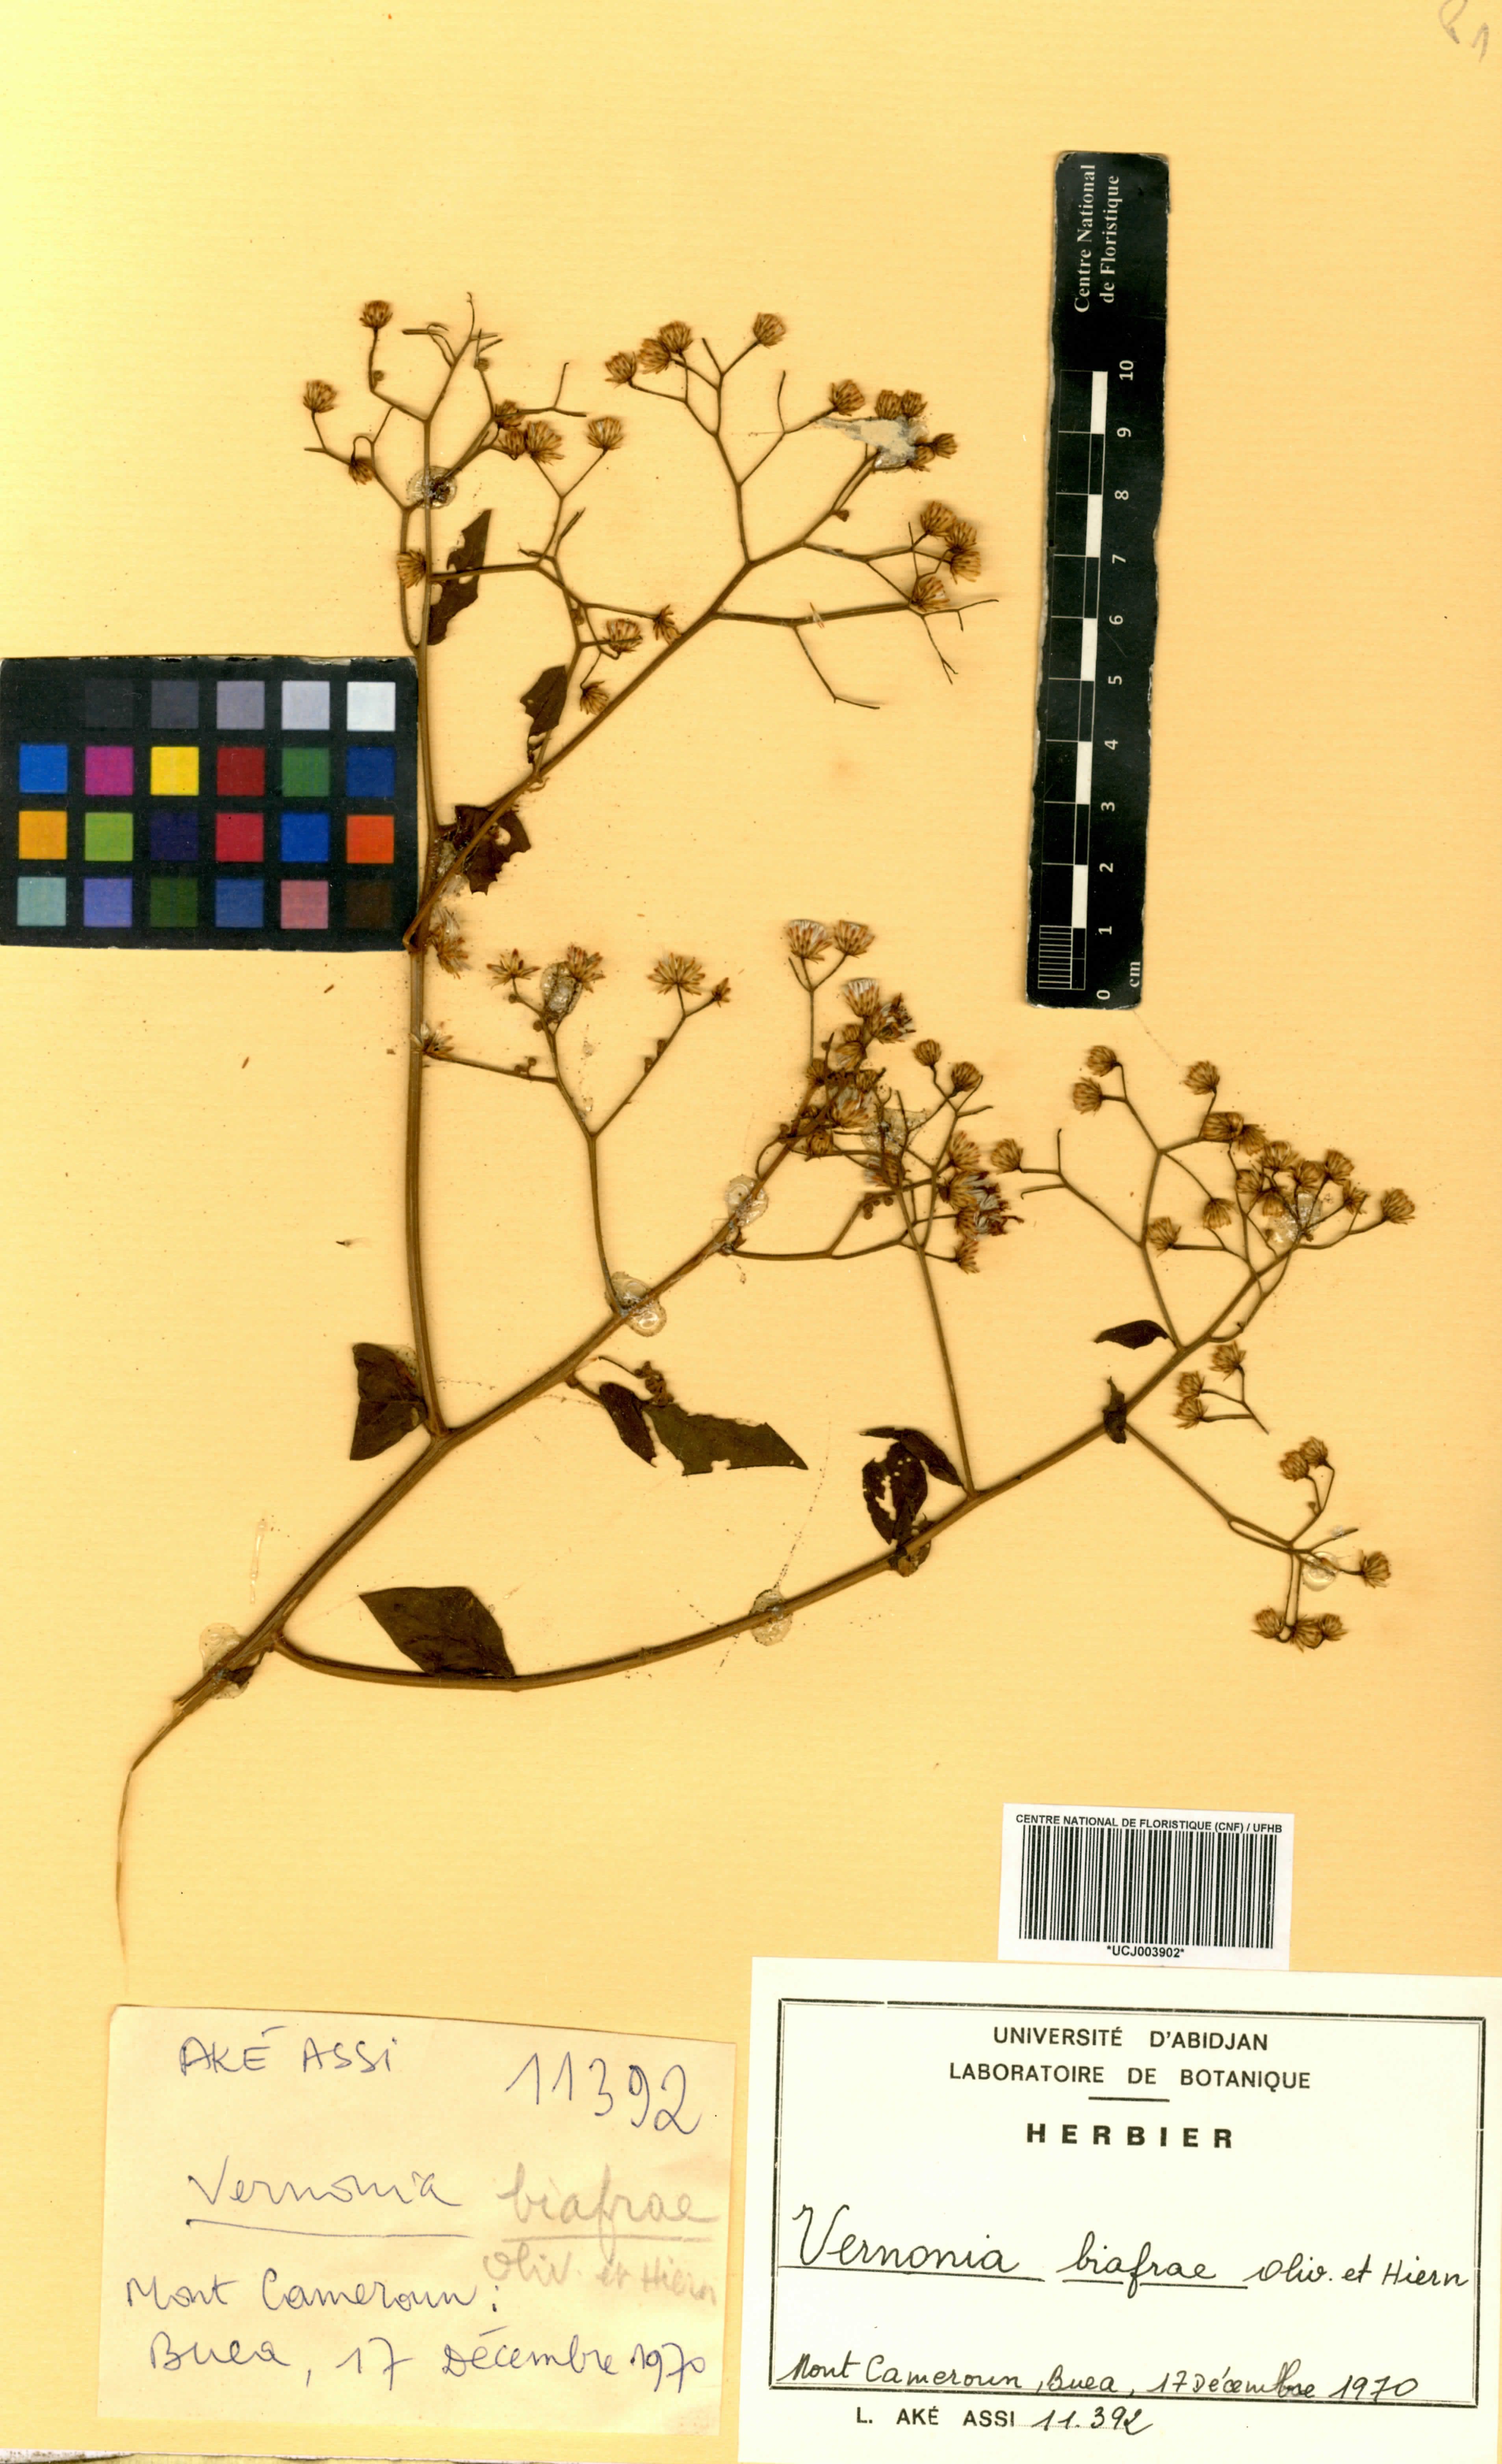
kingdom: Plantae
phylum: Tracheophyta
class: Magnoliopsida
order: Asterales
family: Asteraceae
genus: Distephanus
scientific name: Distephanus biafrae
